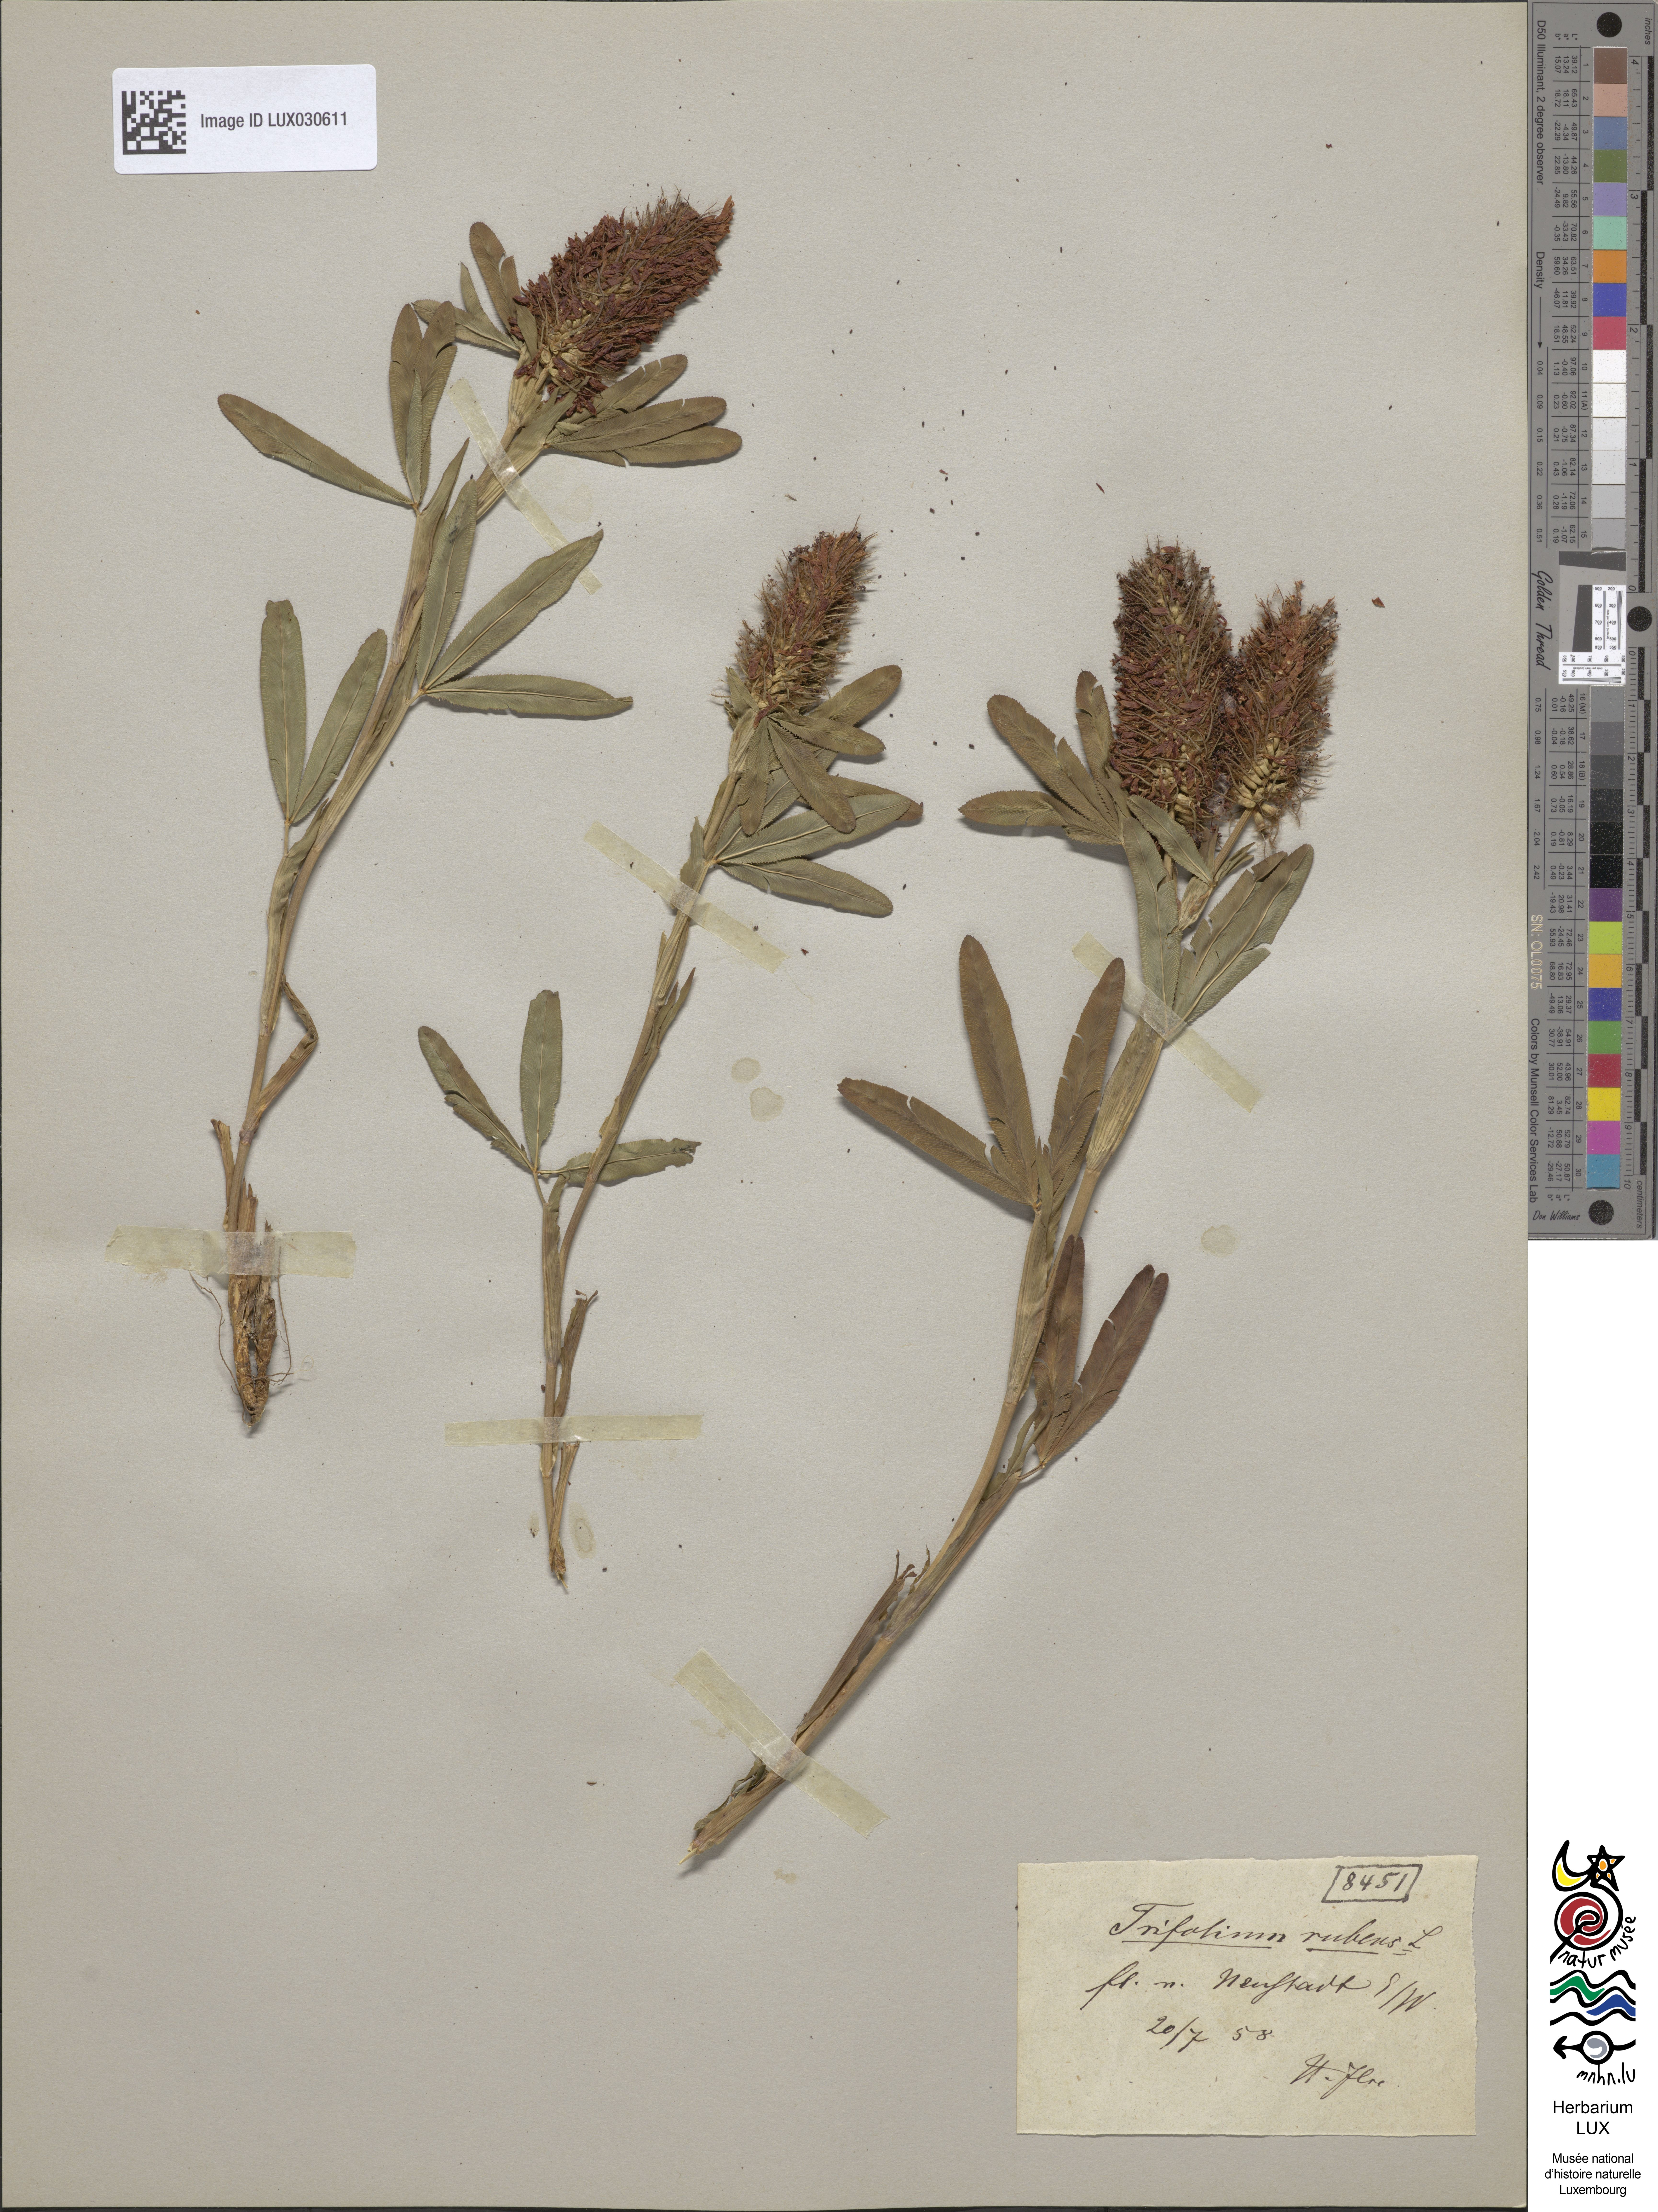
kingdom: Plantae
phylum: Tracheophyta
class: Magnoliopsida
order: Fabales
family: Fabaceae
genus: Trifolium
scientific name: Trifolium rubens
